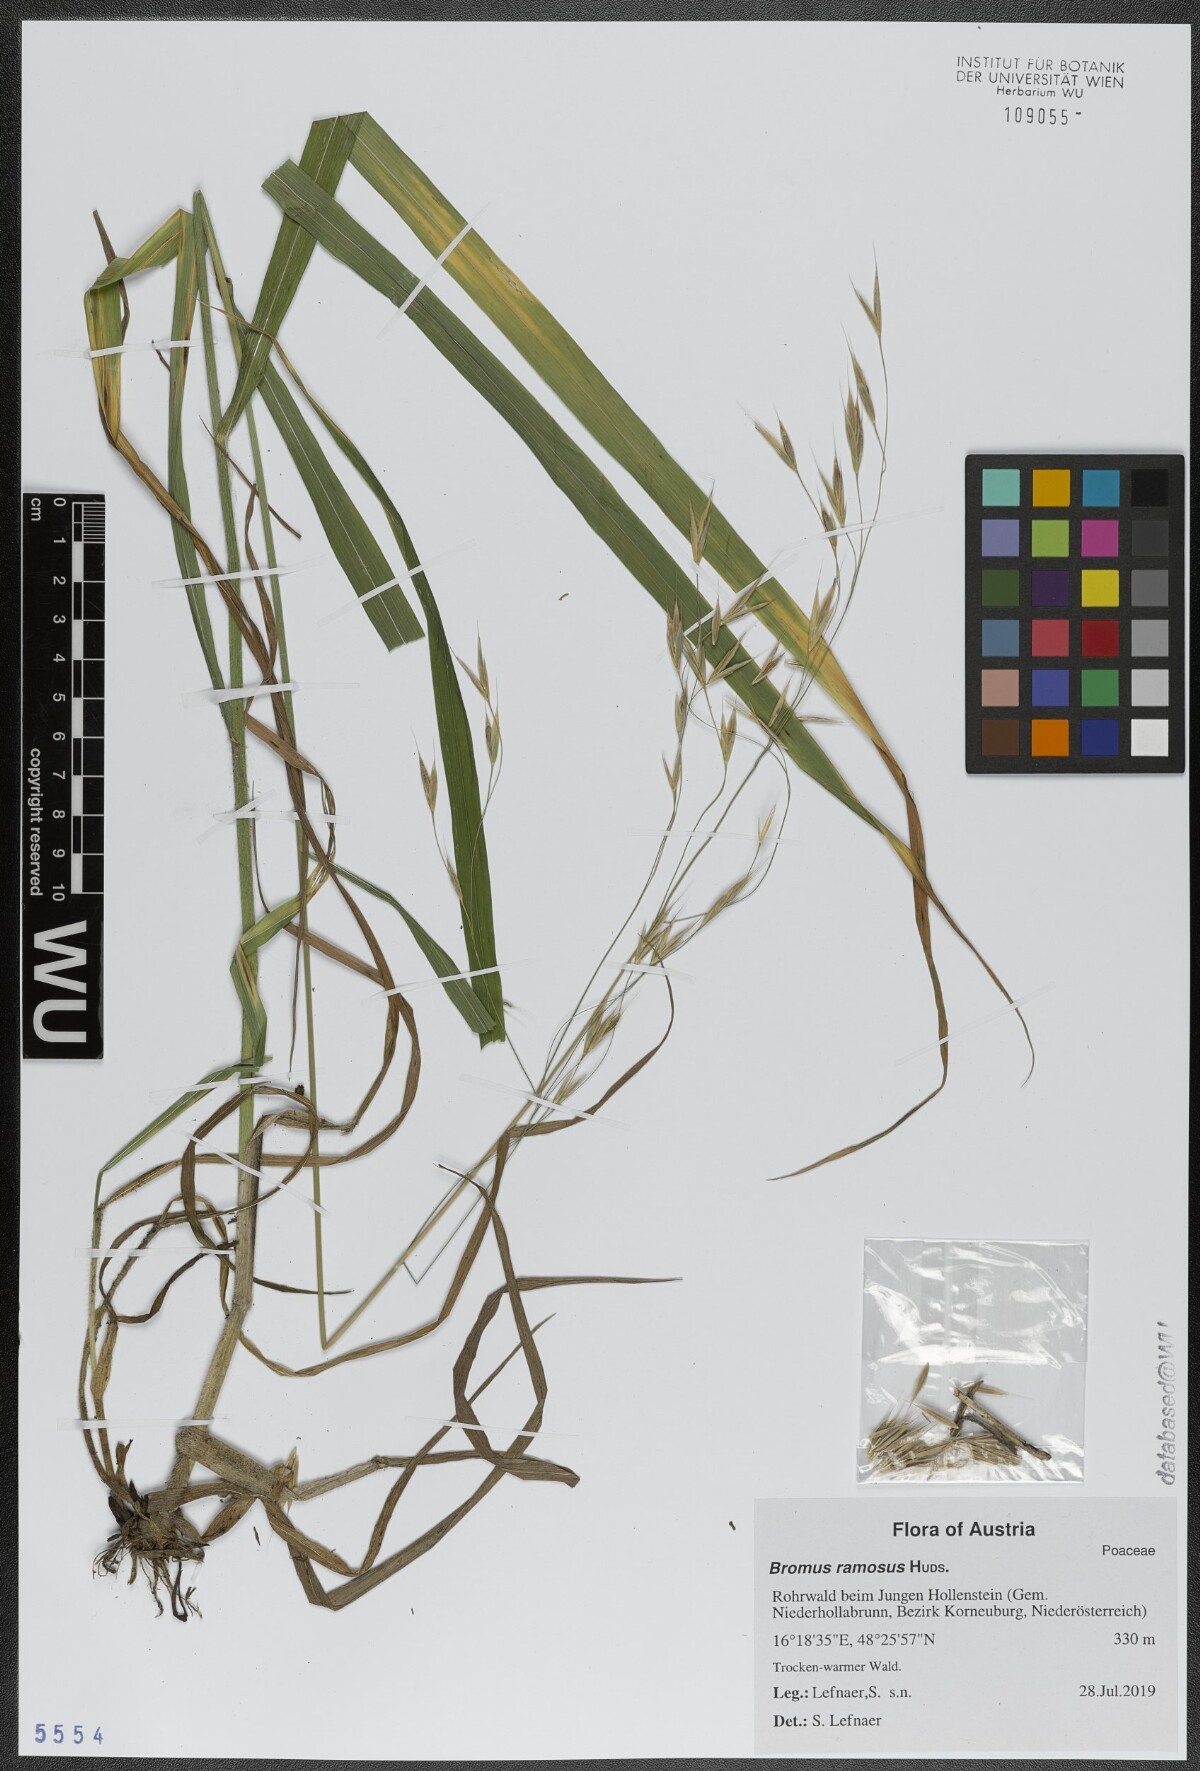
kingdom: Plantae
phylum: Tracheophyta
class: Liliopsida
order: Poales
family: Poaceae
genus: Bromus
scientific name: Bromus ramosus
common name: Hairy brome
